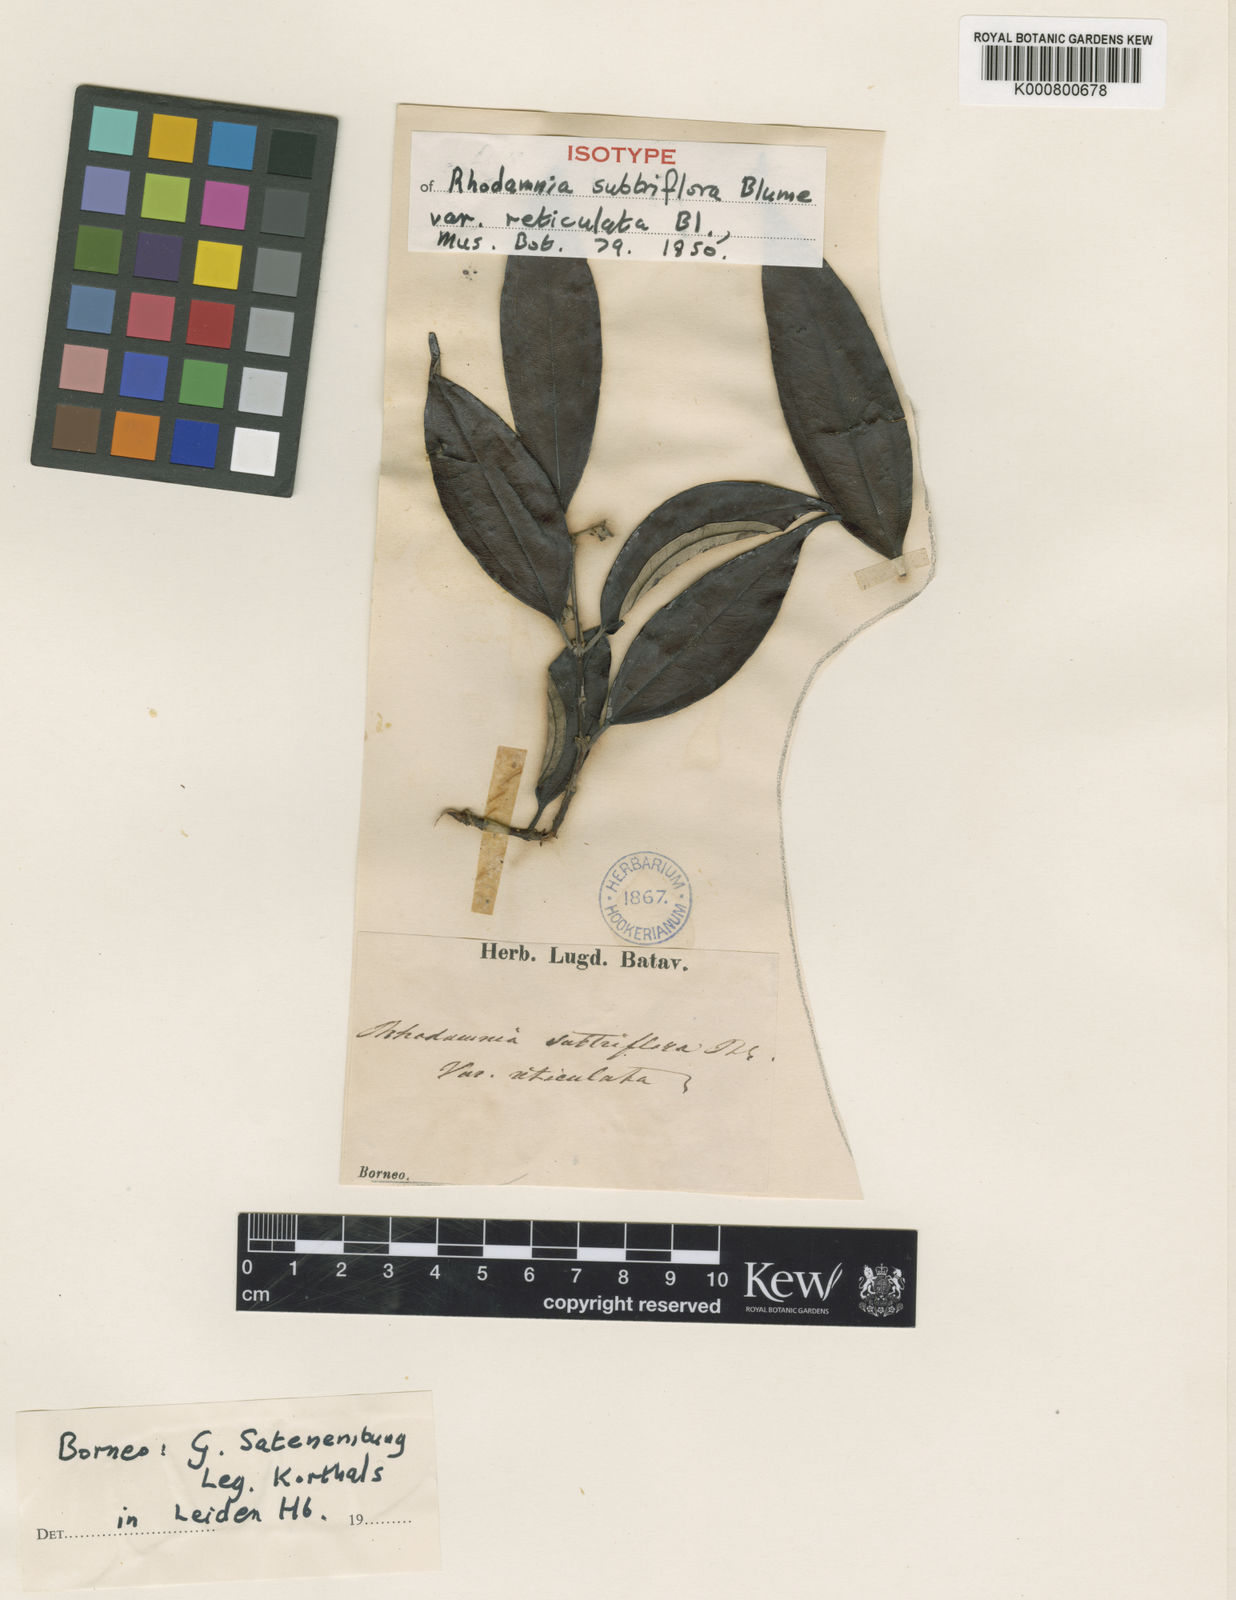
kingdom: Plantae
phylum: Tracheophyta
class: Magnoliopsida
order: Myrtales
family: Myrtaceae
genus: Rhodamnia
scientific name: Rhodamnia cinerea
